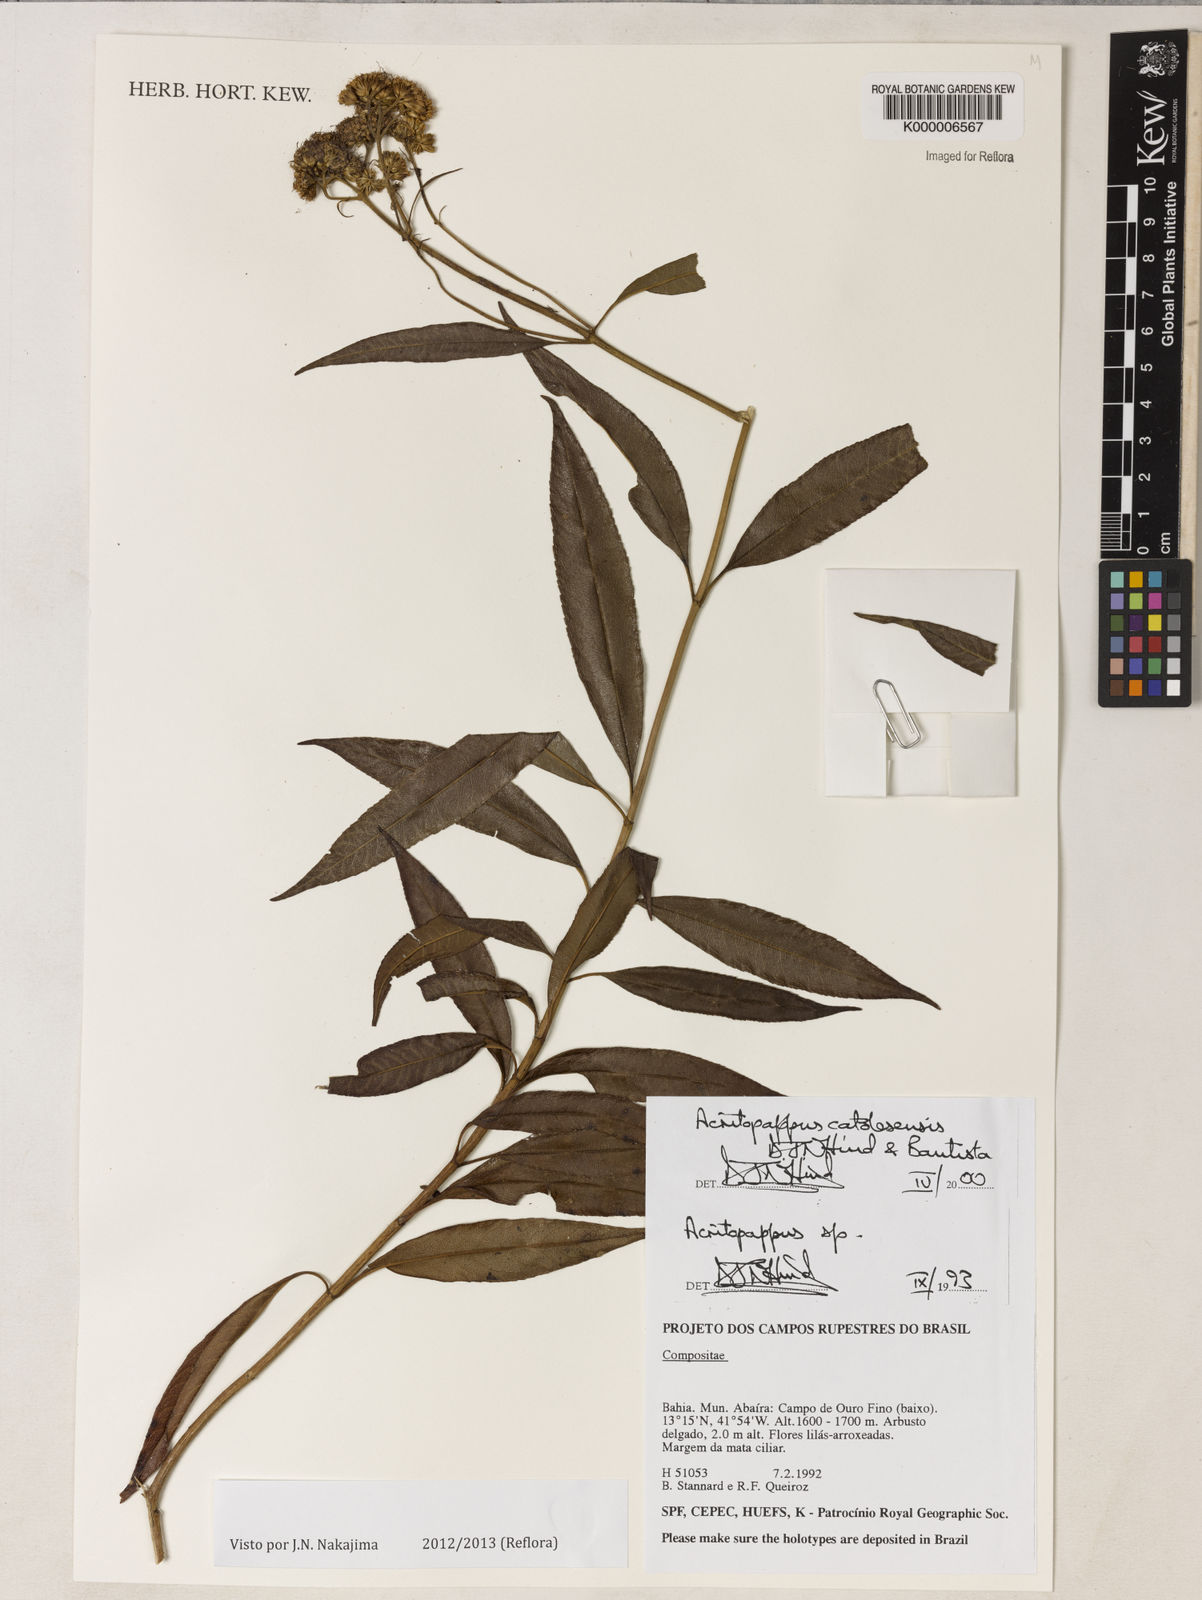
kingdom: Plantae
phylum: Tracheophyta
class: Magnoliopsida
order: Asterales
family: Asteraceae
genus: Acritopappus
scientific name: Acritopappus catolesensis
